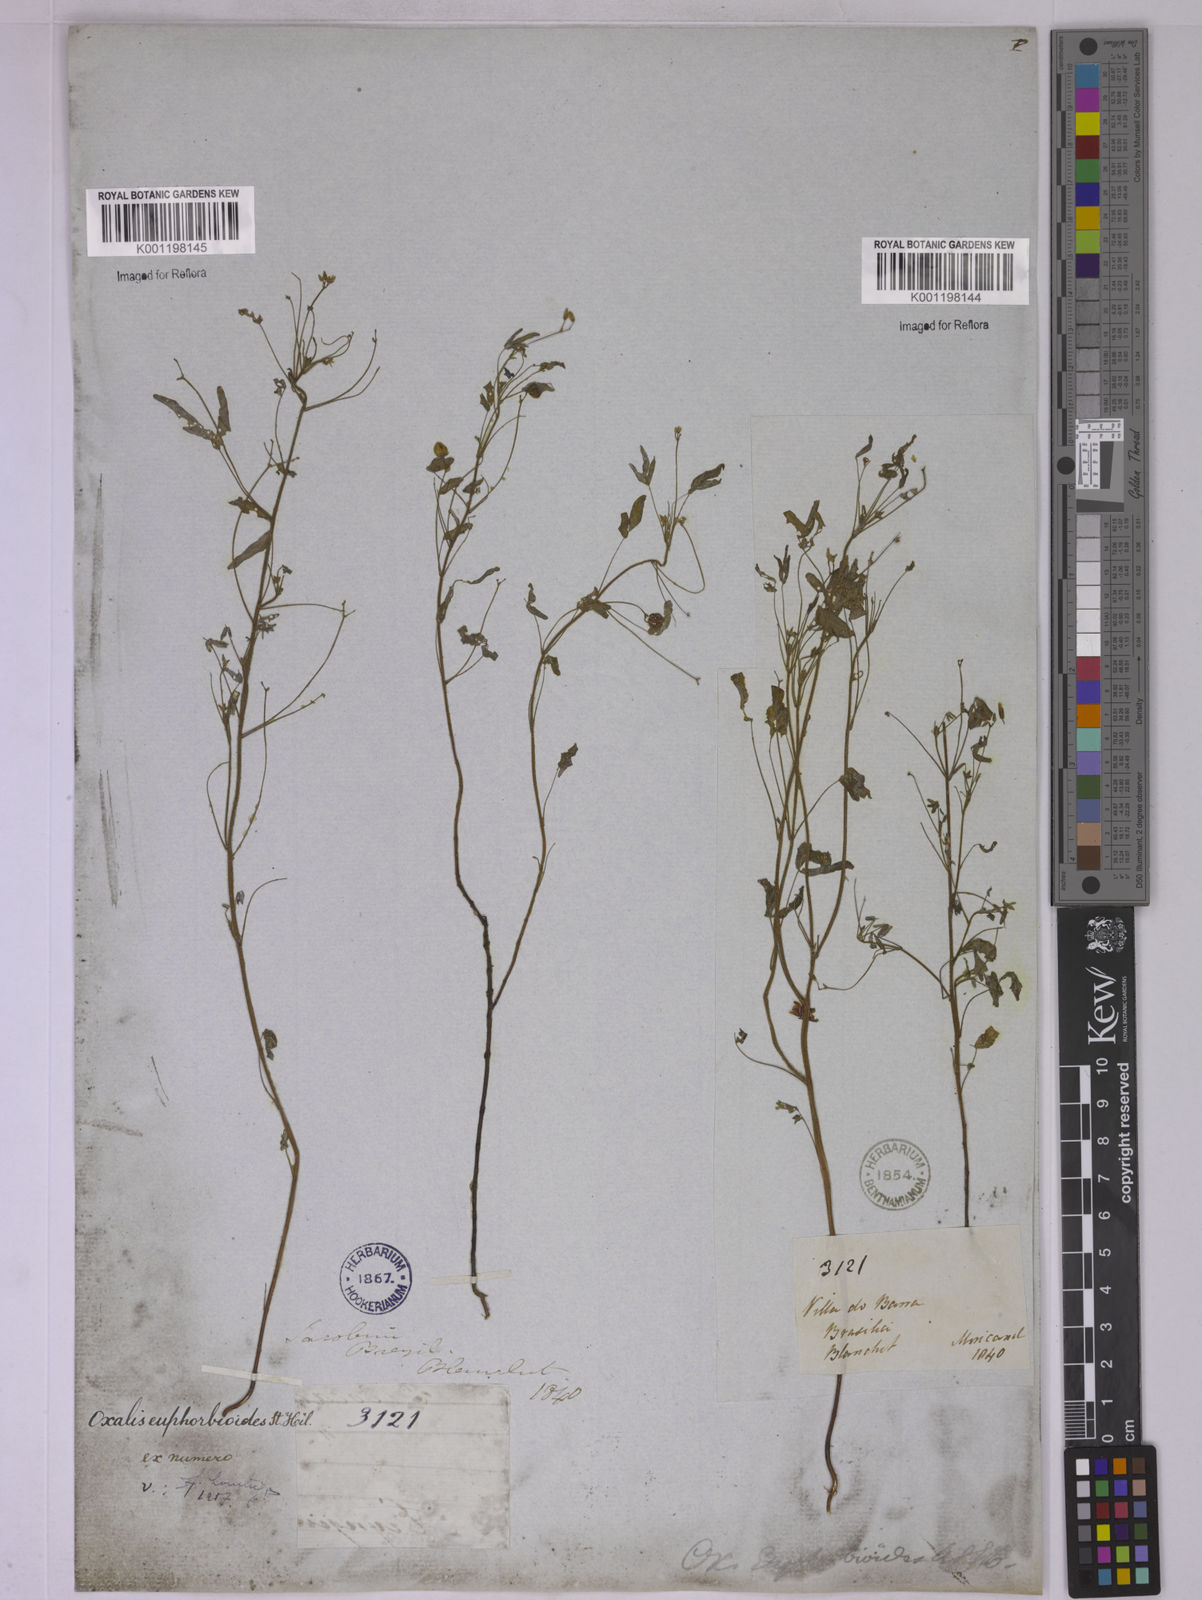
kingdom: Plantae
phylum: Tracheophyta
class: Magnoliopsida
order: Oxalidales
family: Oxalidaceae
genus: Oxalis
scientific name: Oxalis divaricata
